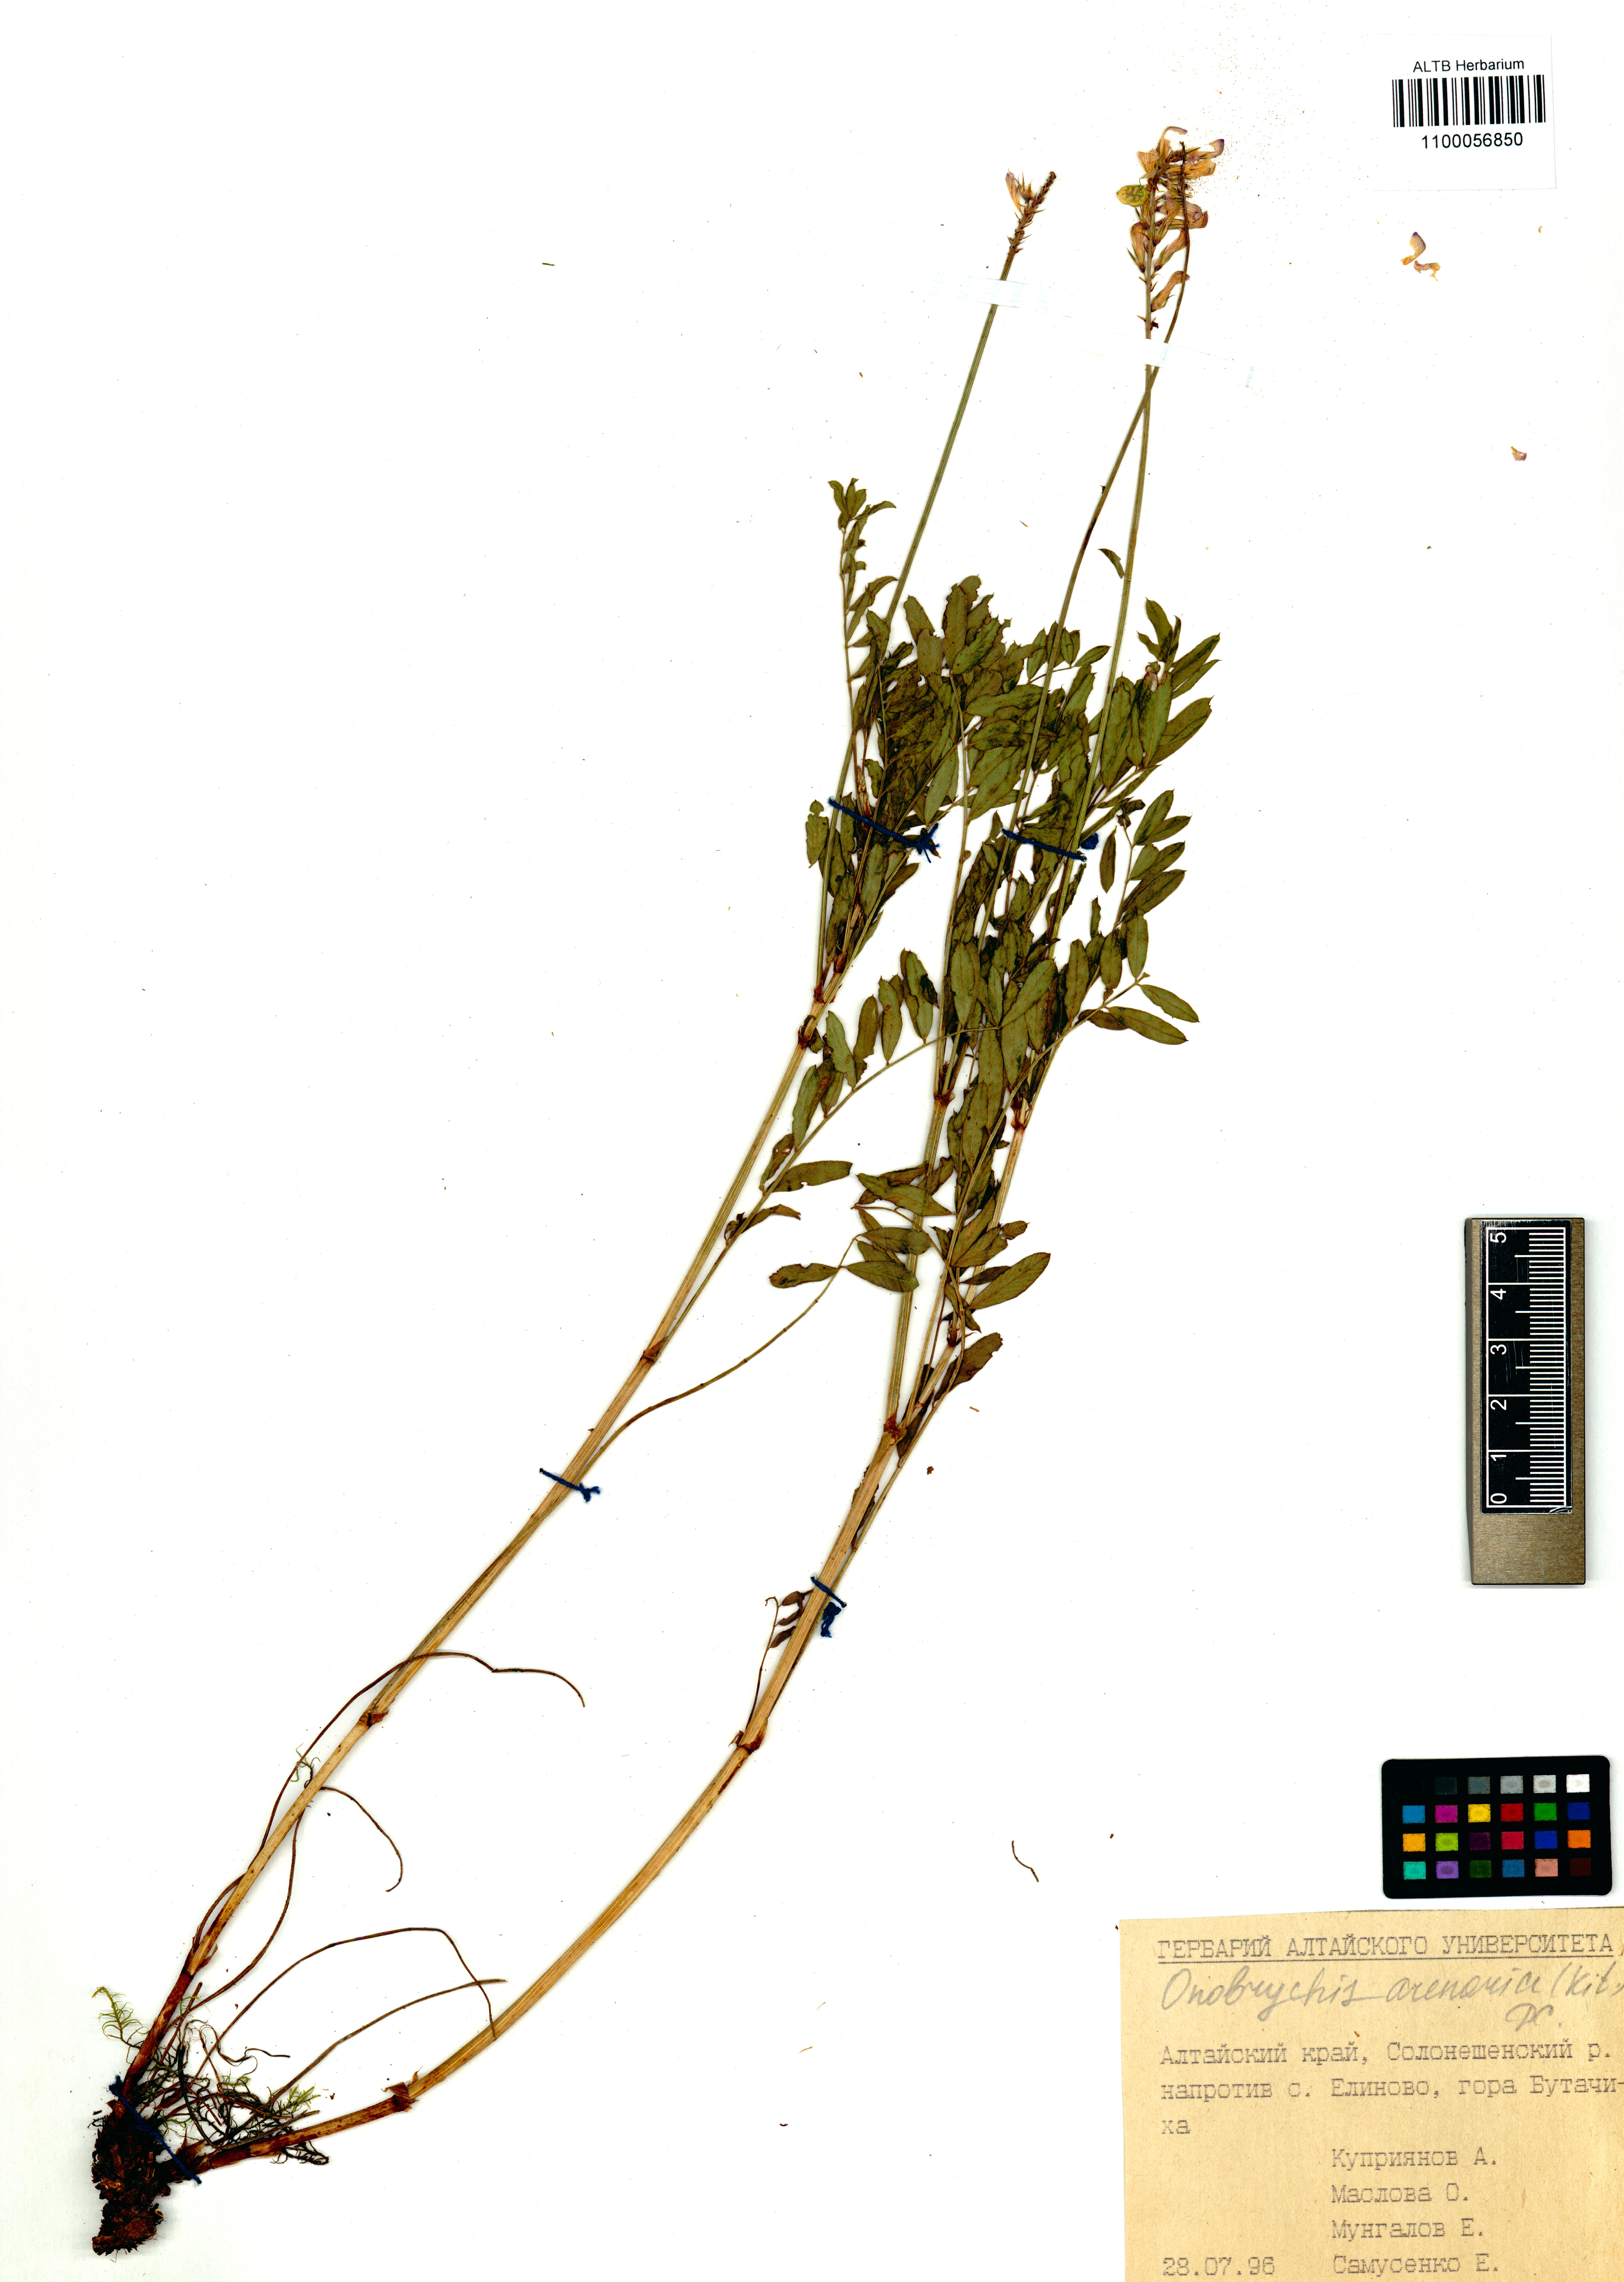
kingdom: Plantae
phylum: Tracheophyta
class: Magnoliopsida
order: Fabales
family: Fabaceae
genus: Onobrychis
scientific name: Onobrychis arenaria
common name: Sand esparcet
